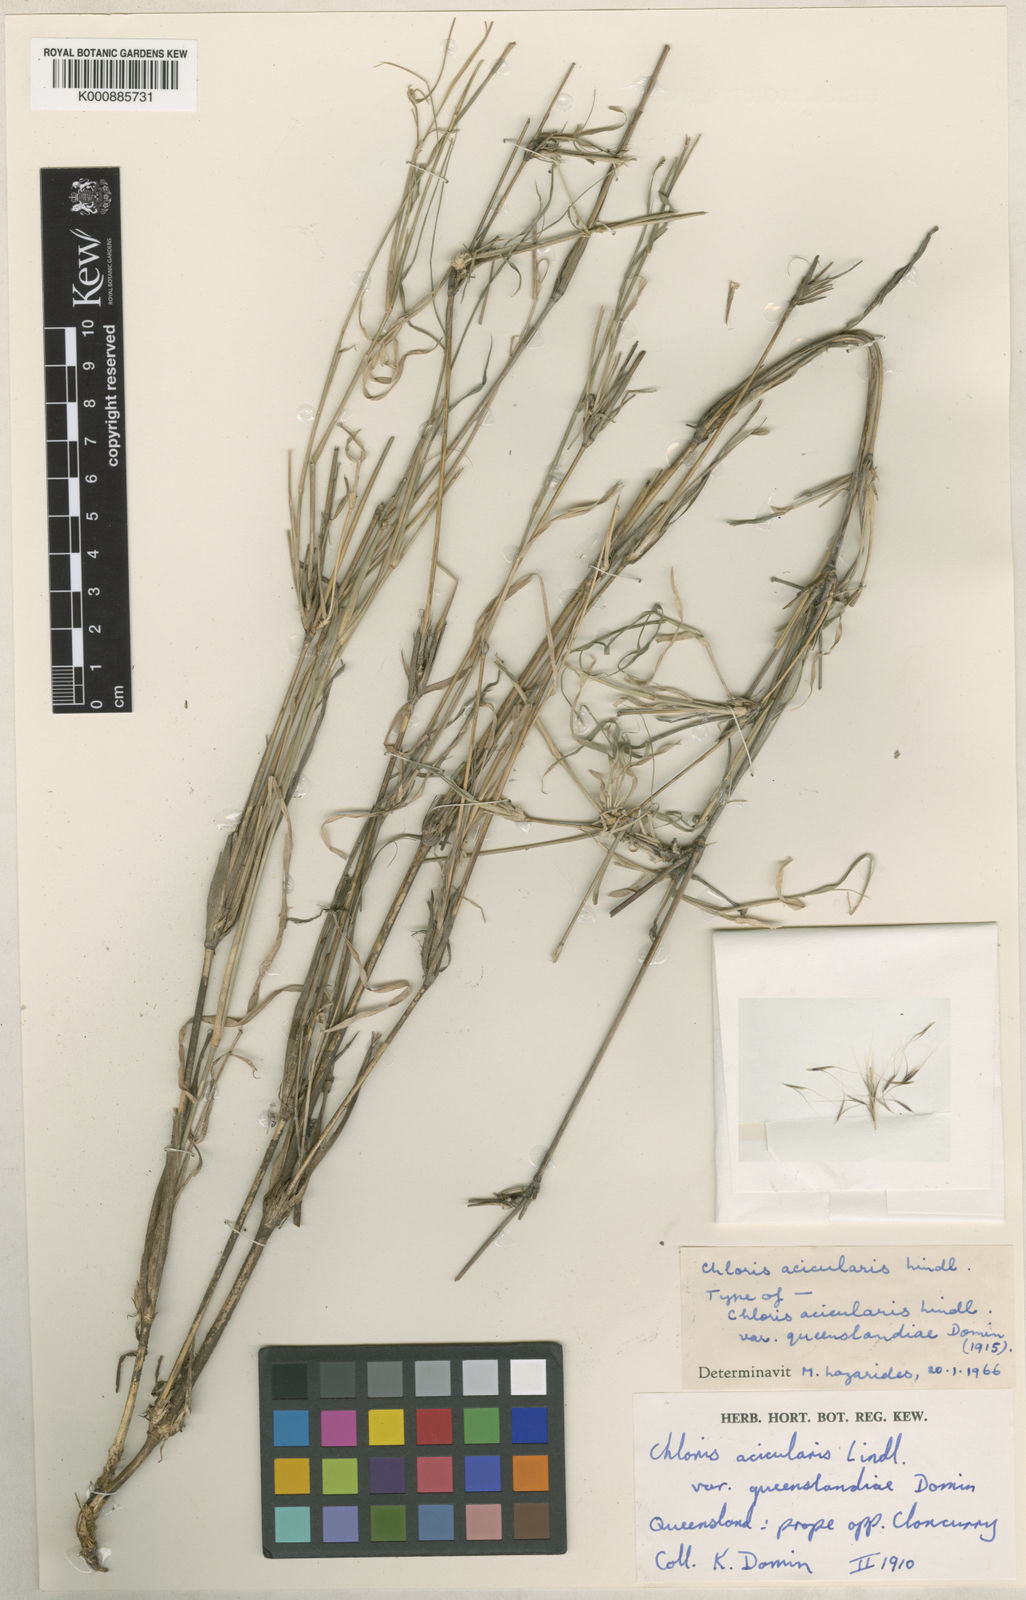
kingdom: Plantae
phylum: Tracheophyta
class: Liliopsida
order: Poales
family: Poaceae
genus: Enteropogon
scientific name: Enteropogon ramosus
